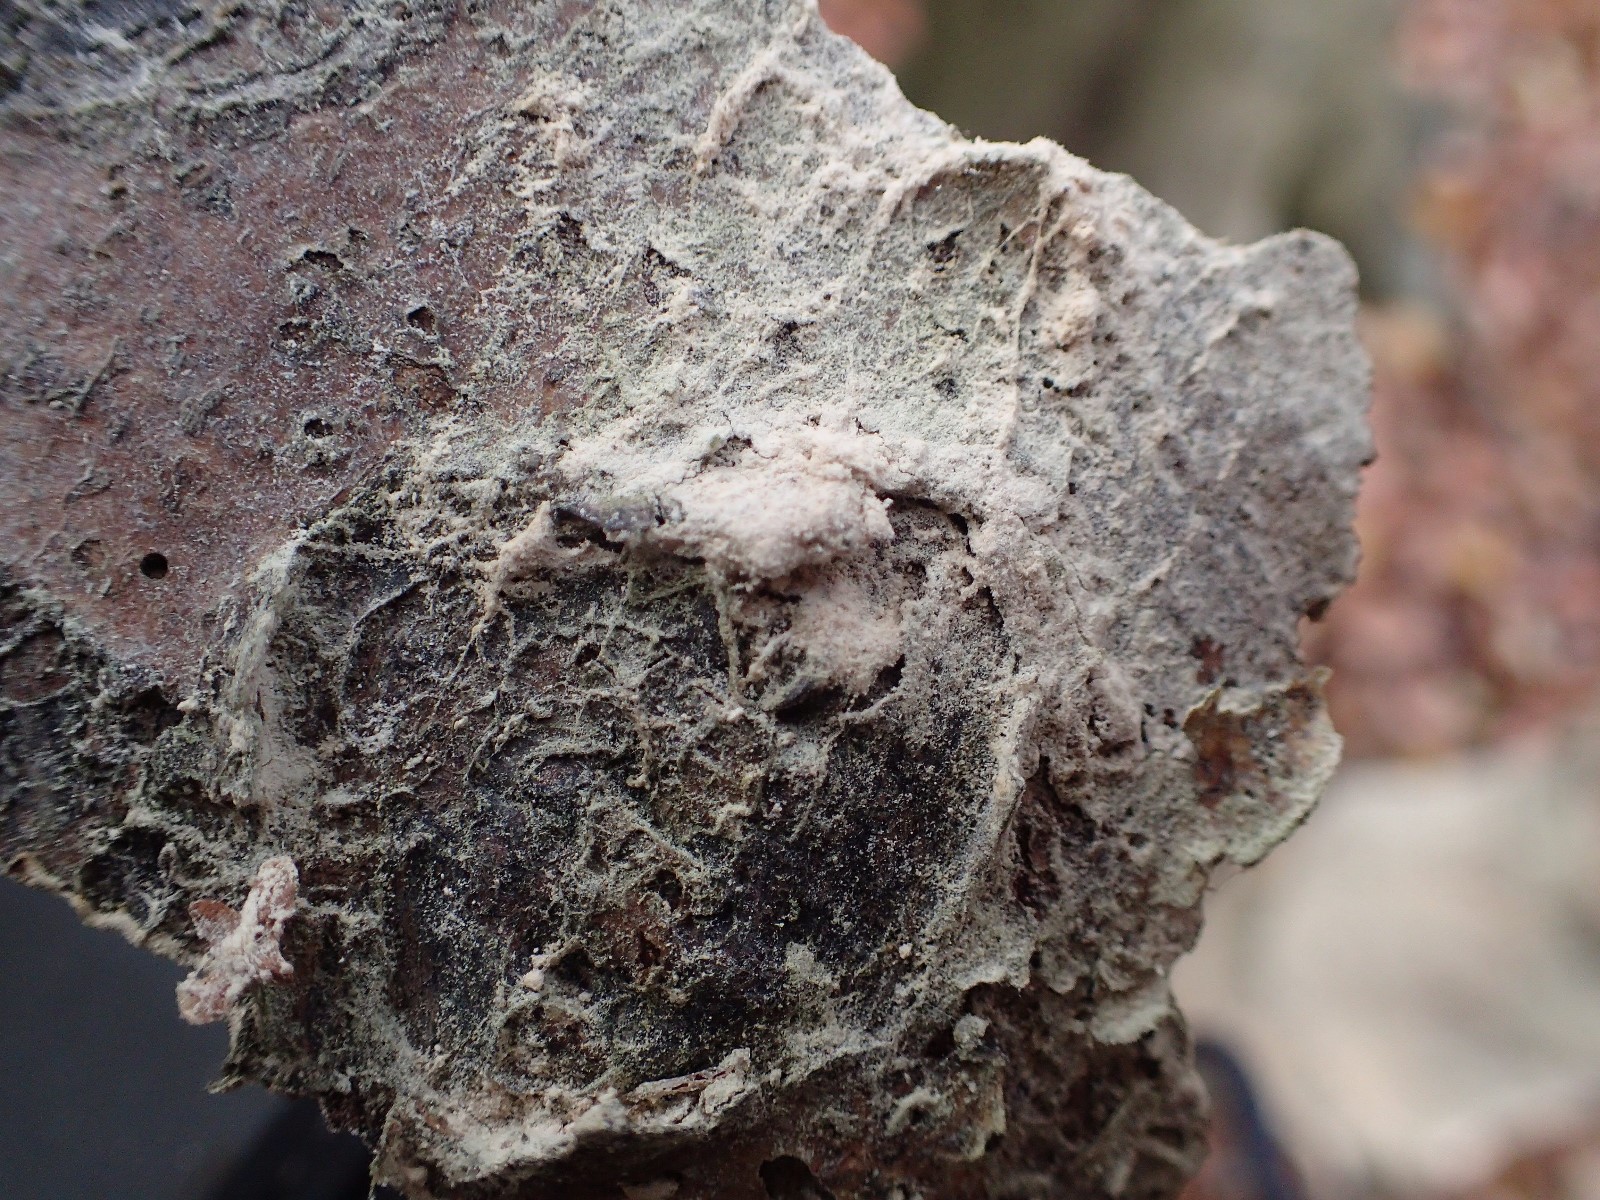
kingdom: Fungi
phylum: Basidiomycota
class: Agaricomycetes
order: Corticiales
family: Corticiaceae
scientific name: Corticiaceae
